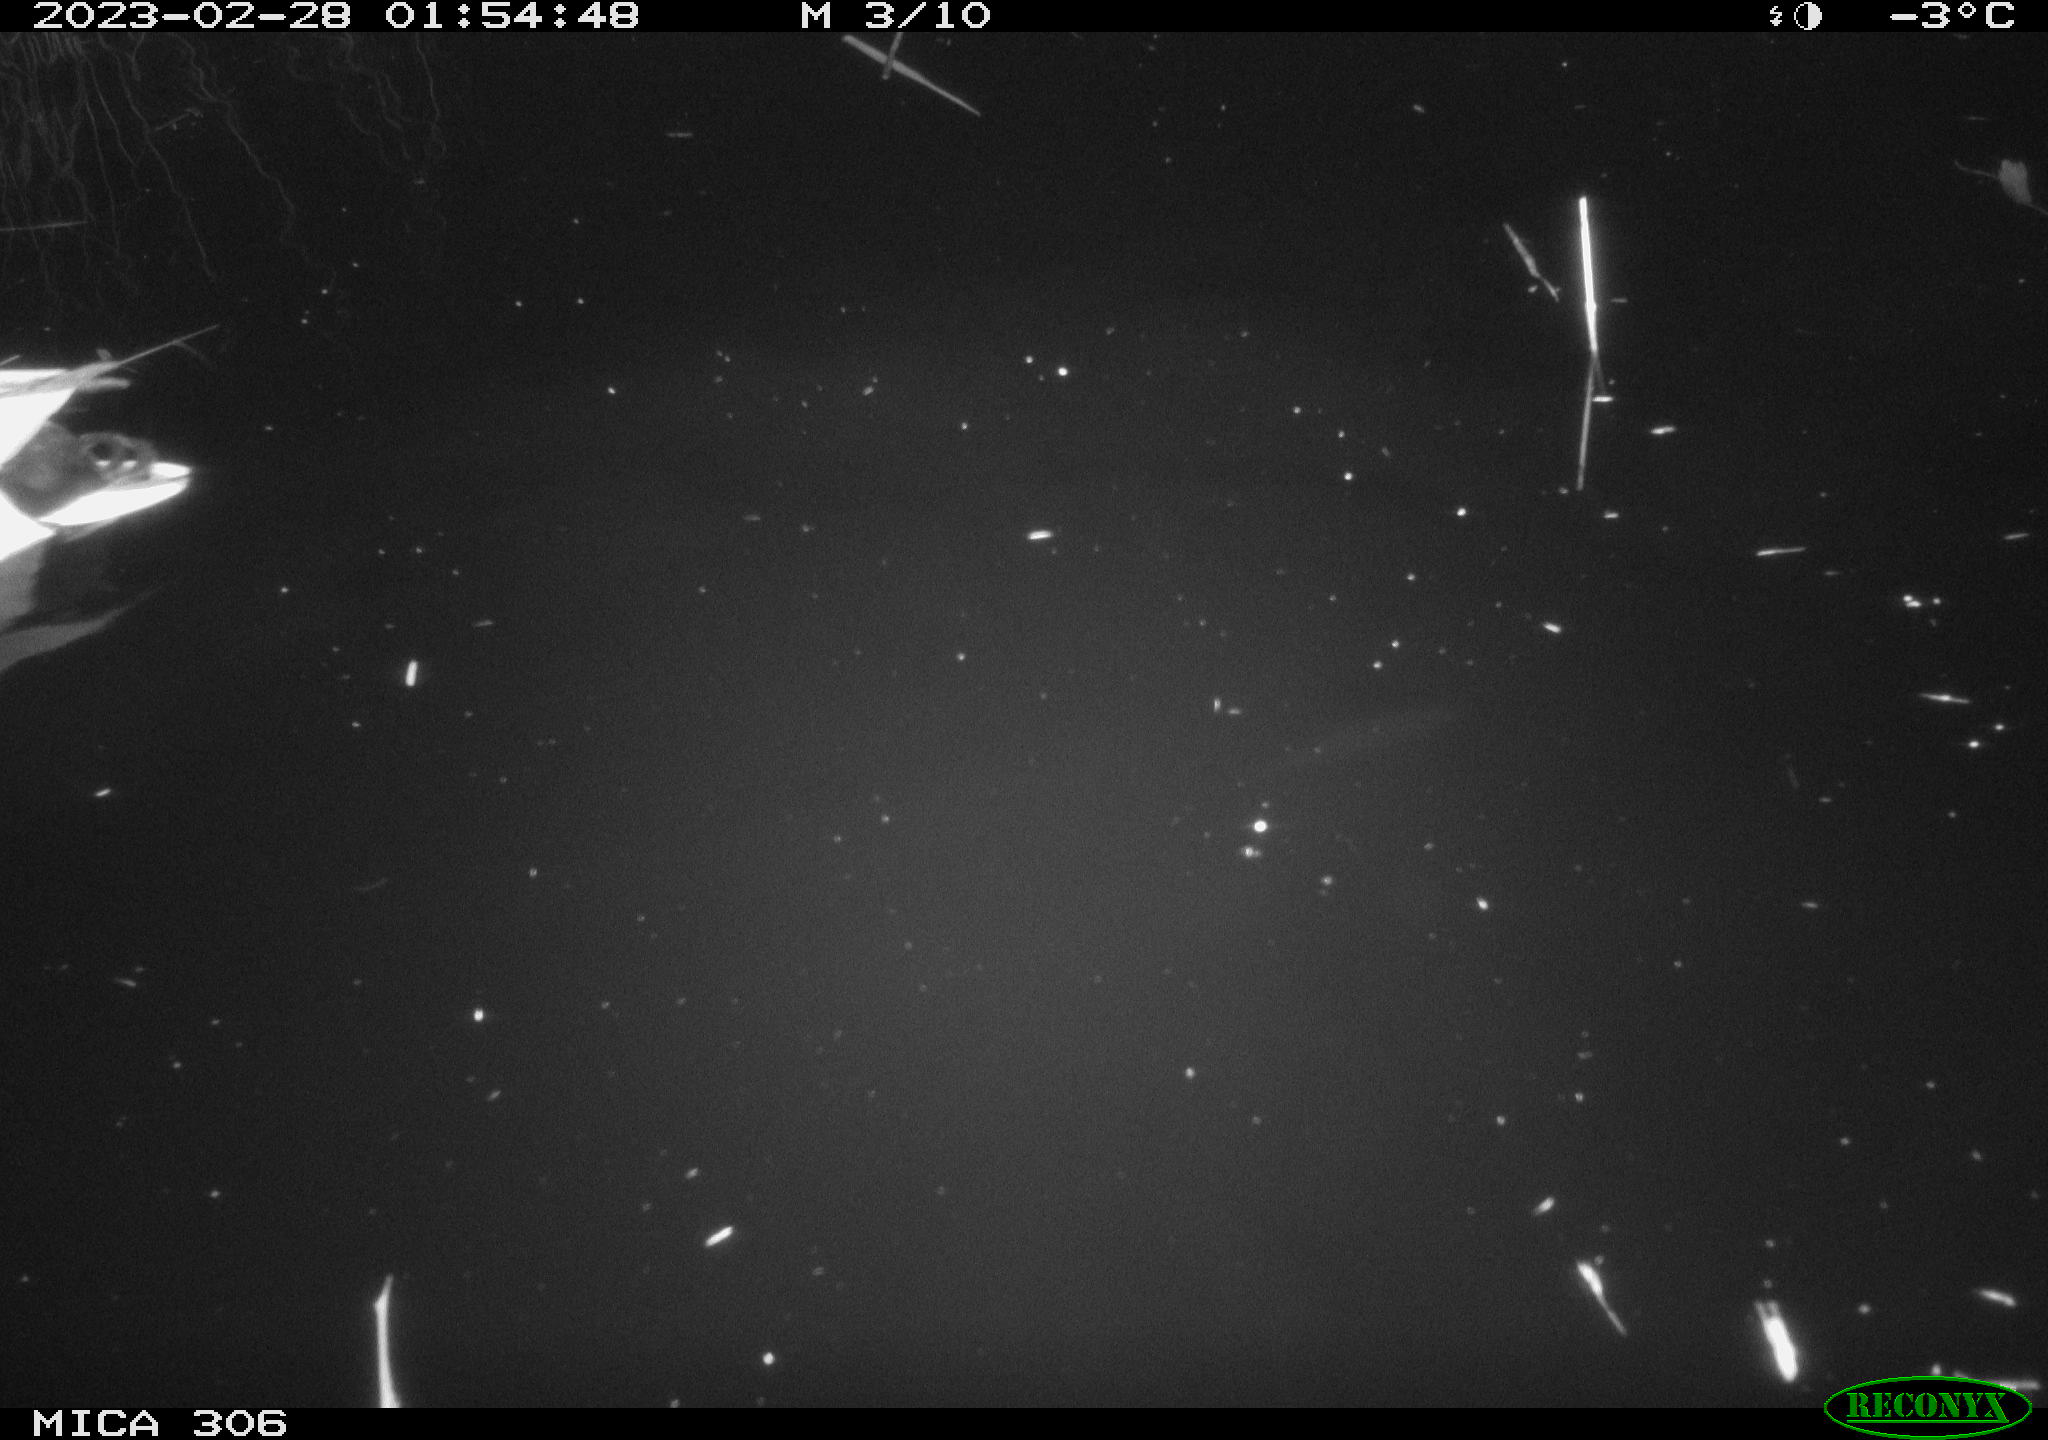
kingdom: Animalia
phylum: Chordata
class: Aves
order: Anseriformes
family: Anatidae
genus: Anas
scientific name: Anas
